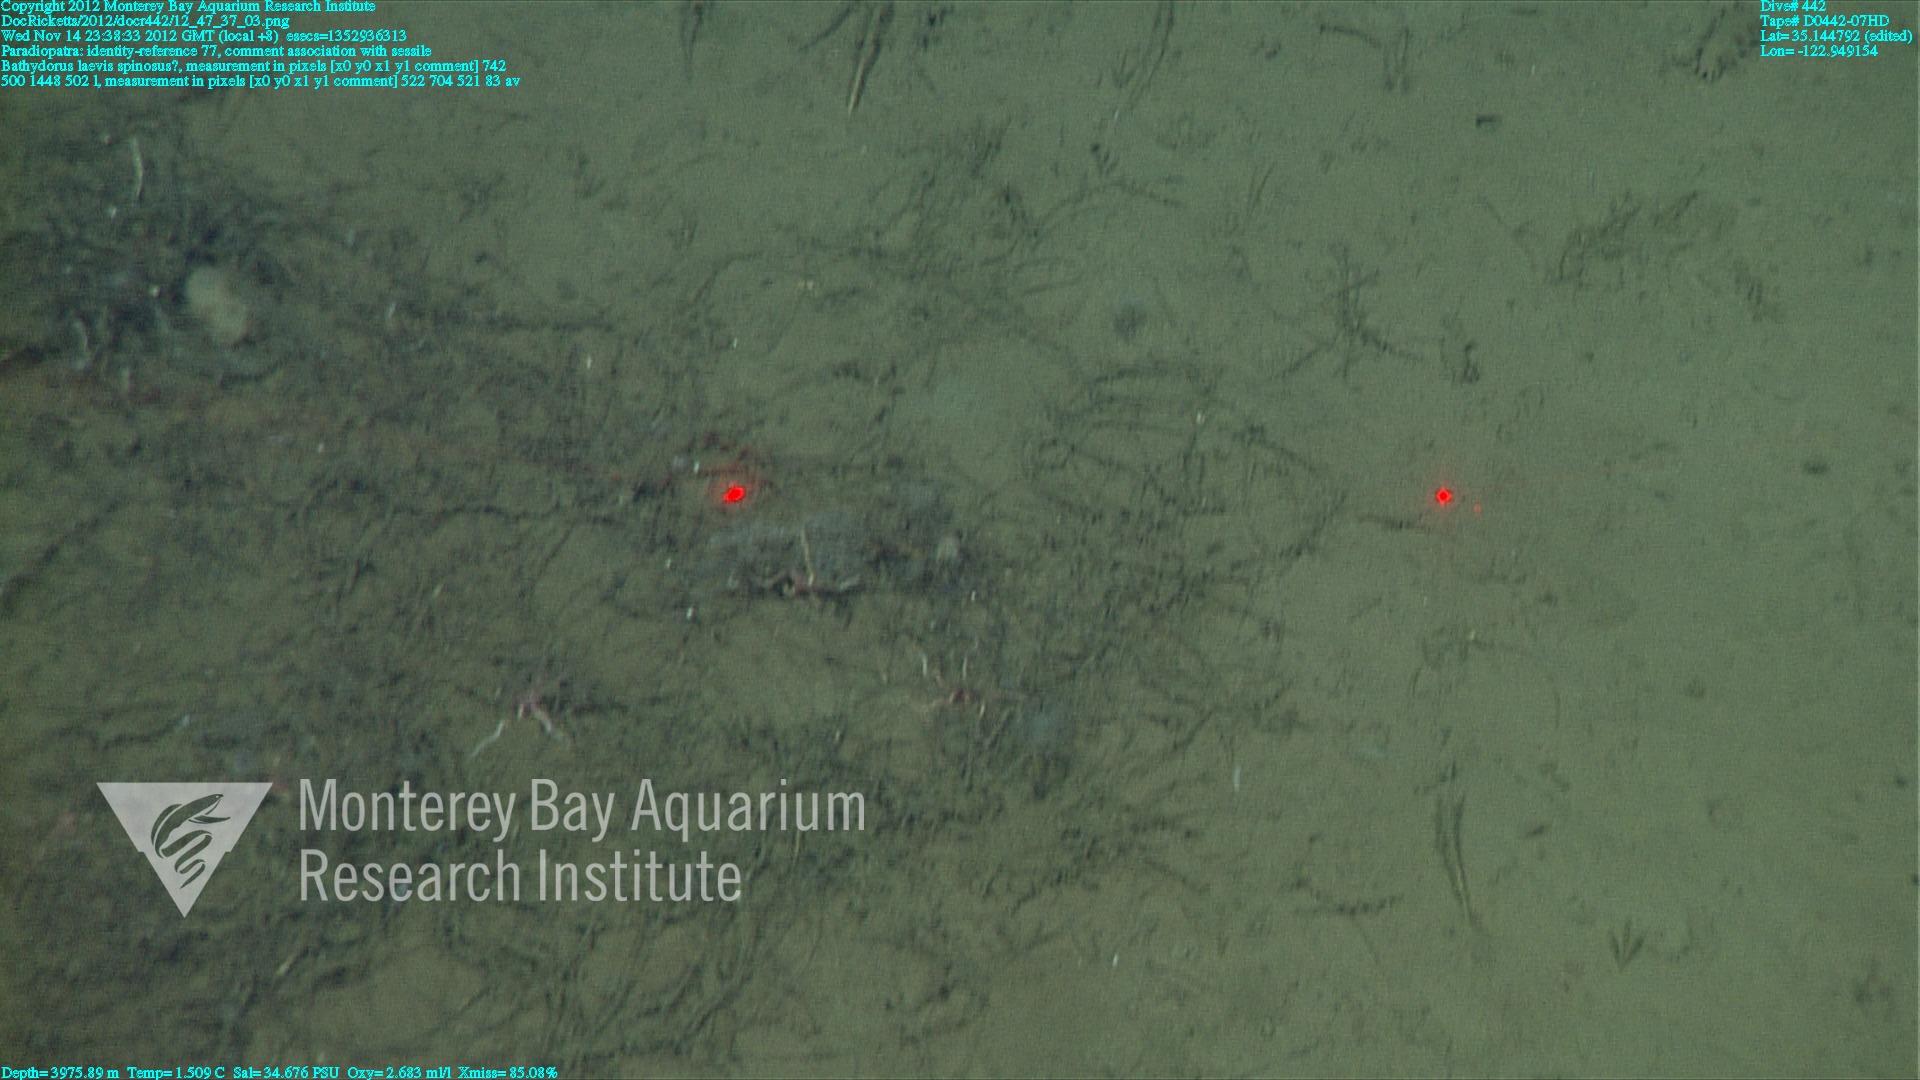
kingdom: Animalia
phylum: Porifera
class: Hexactinellida
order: Lyssacinosida
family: Rossellidae
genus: Bathydorus
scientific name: Bathydorus spinosus
